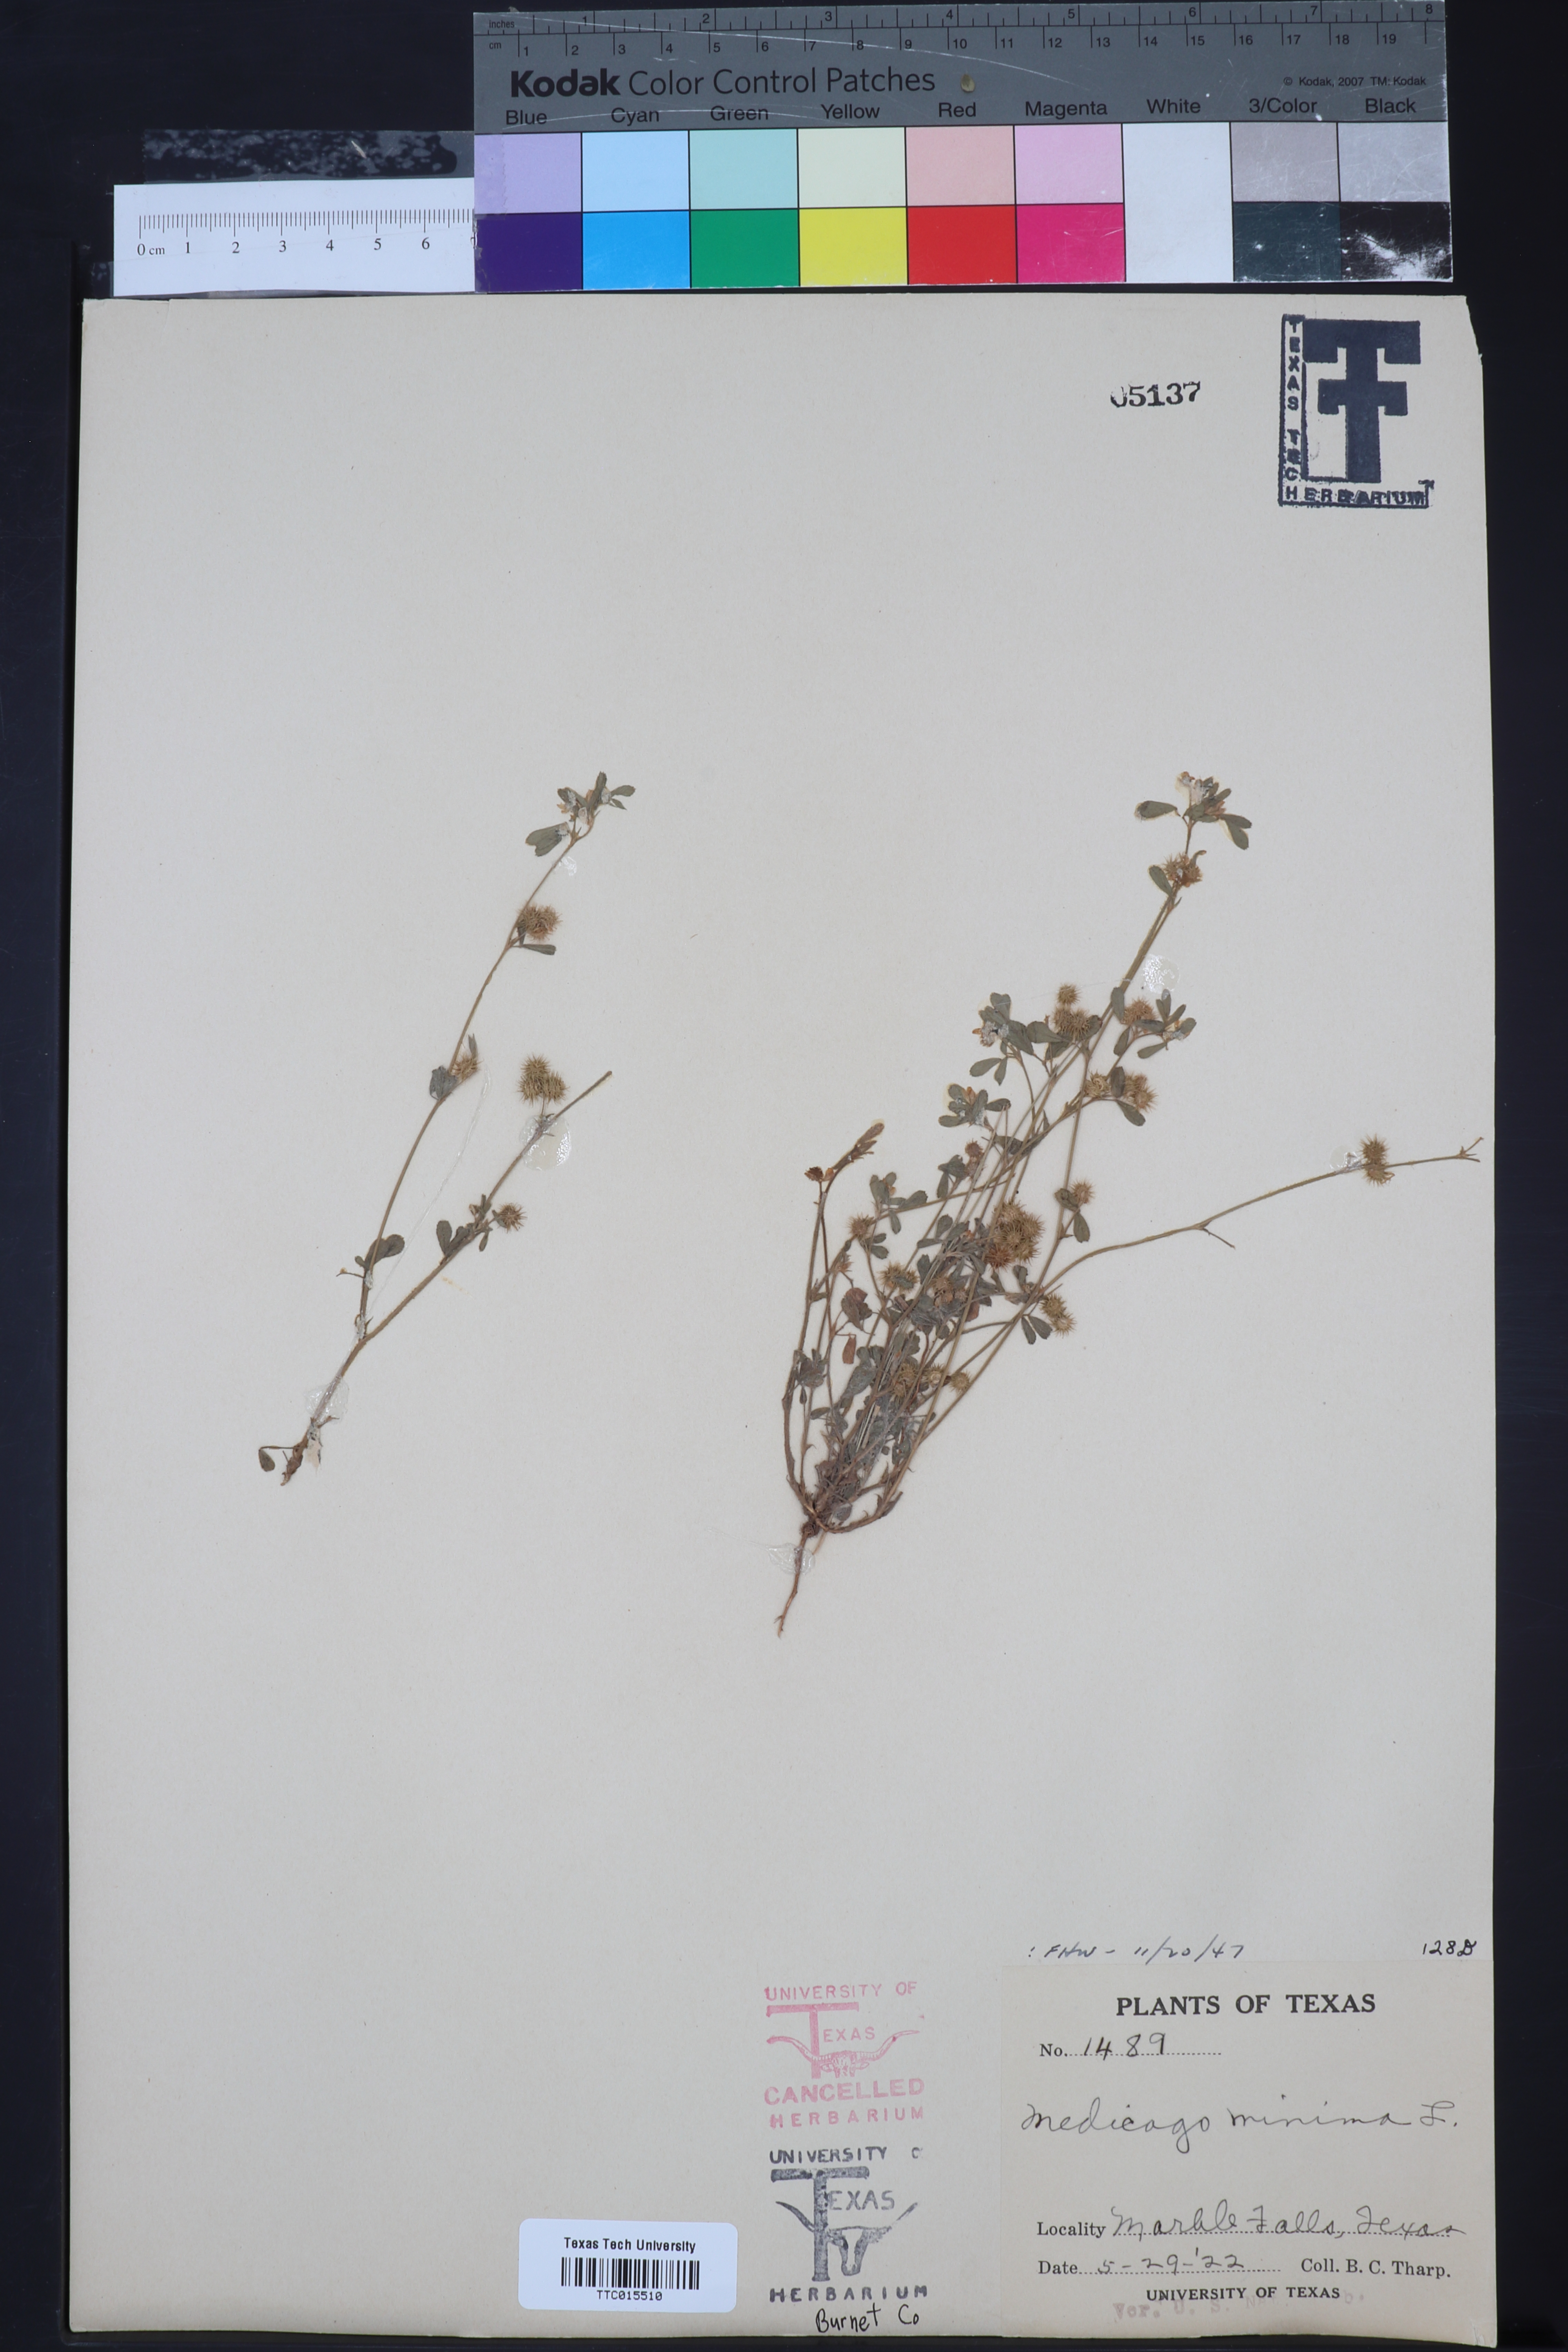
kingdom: Plantae
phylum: Tracheophyta
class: Magnoliopsida
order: Fabales
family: Fabaceae
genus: Medicago
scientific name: Medicago minima
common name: Little bur-clover
